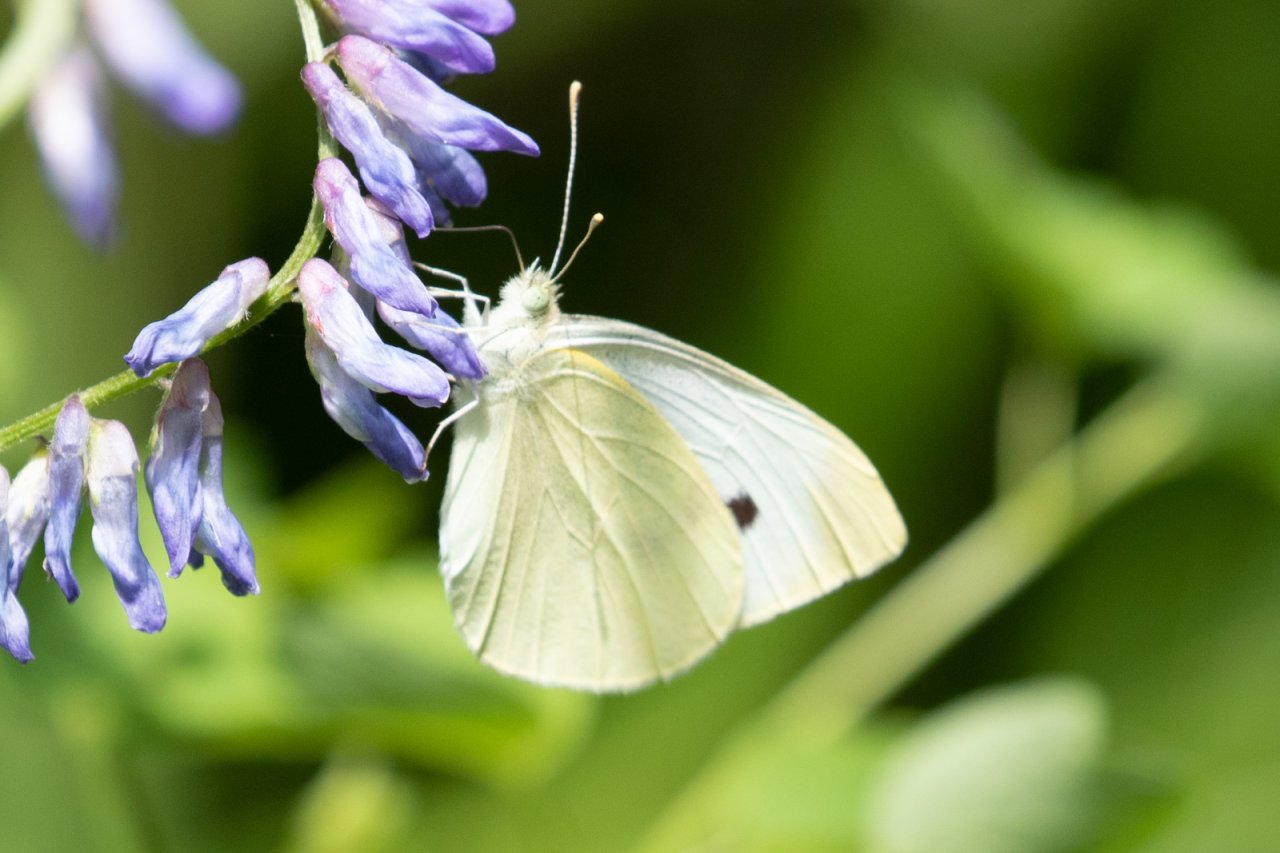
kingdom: Animalia
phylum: Arthropoda
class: Insecta
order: Lepidoptera
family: Pieridae
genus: Pieris
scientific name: Pieris rapae
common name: Cabbage White
